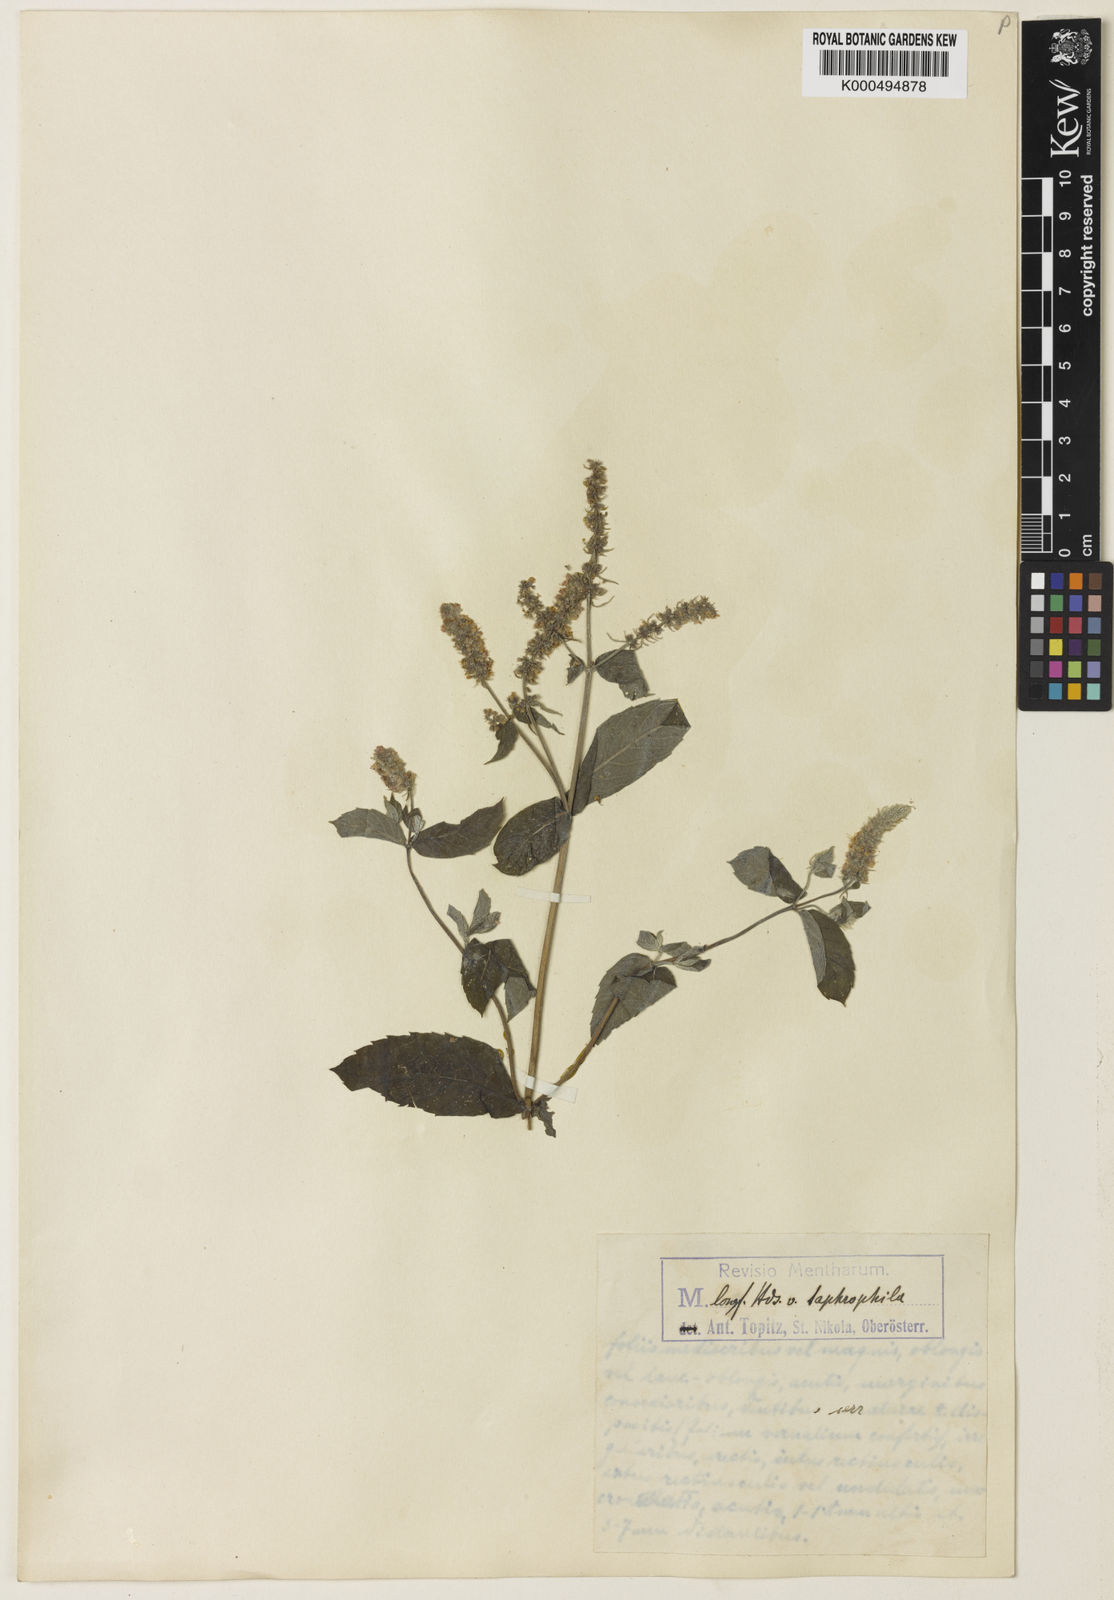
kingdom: Plantae
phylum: Tracheophyta
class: Magnoliopsida
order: Lamiales
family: Lamiaceae
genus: Mentha
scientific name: Mentha rotundifolia
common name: Bigleaf mint
